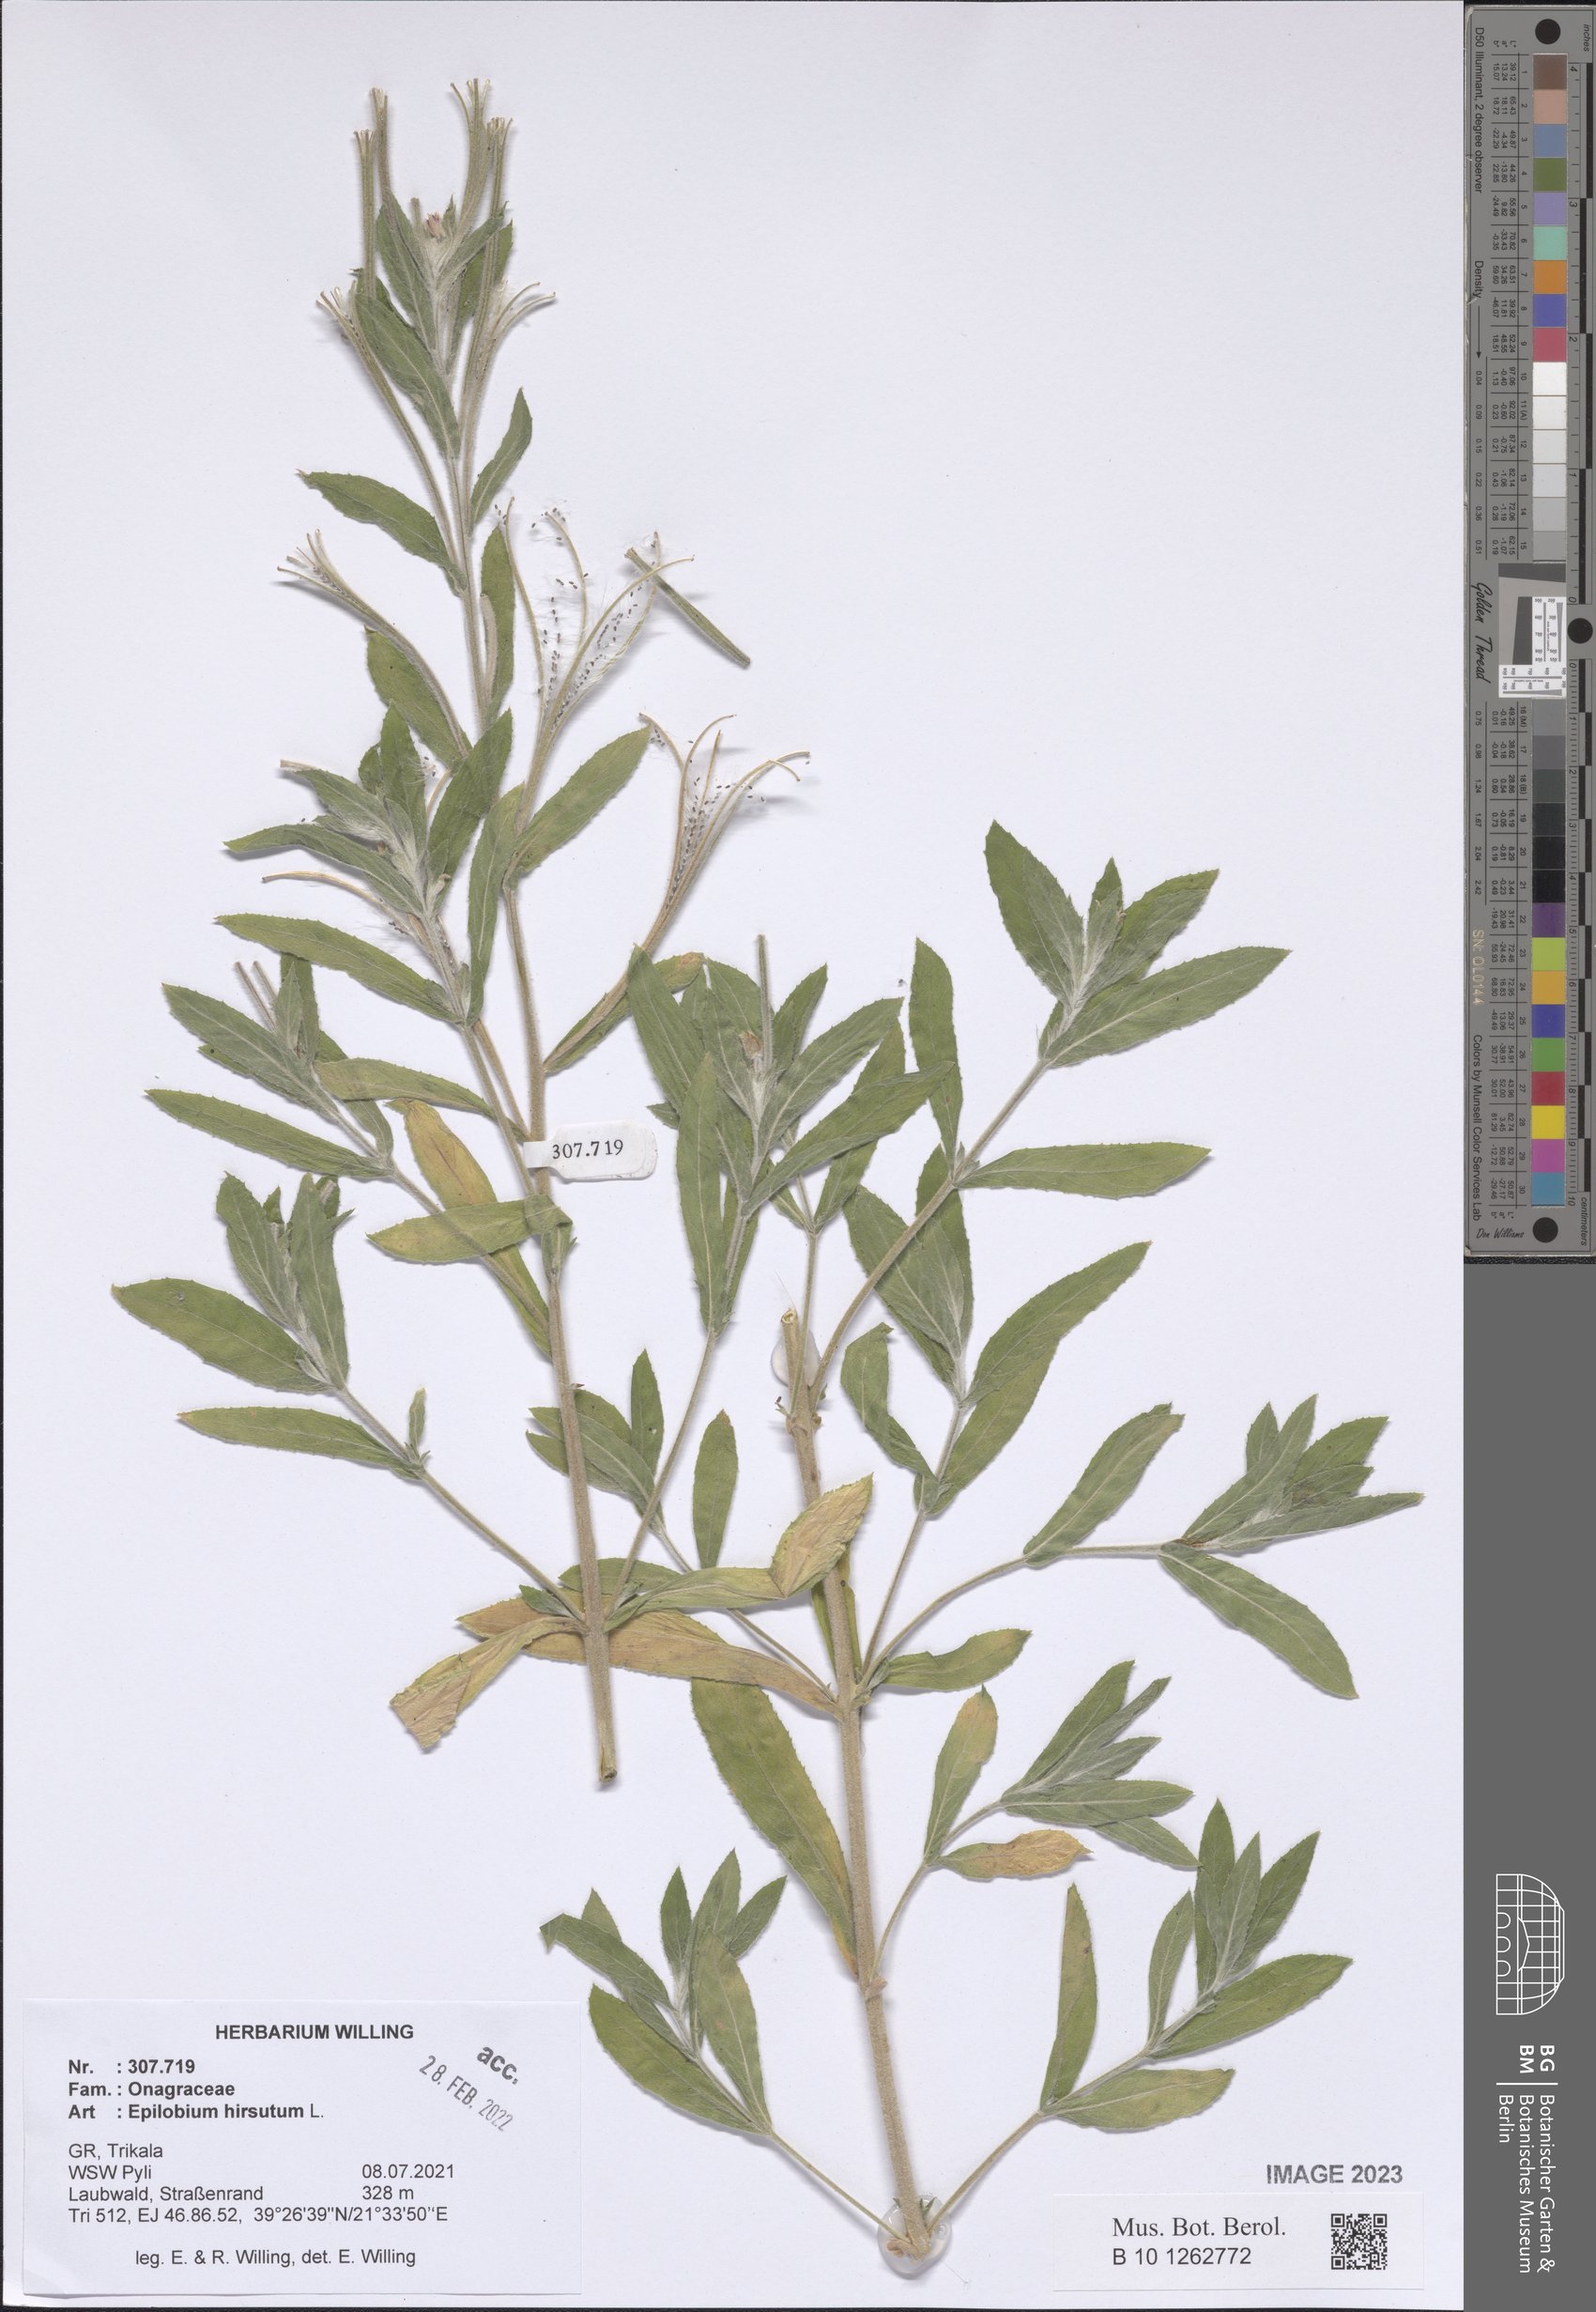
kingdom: Plantae
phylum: Tracheophyta
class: Magnoliopsida
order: Myrtales
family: Onagraceae
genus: Epilobium
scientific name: Epilobium hirsutum
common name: Great willowherb
